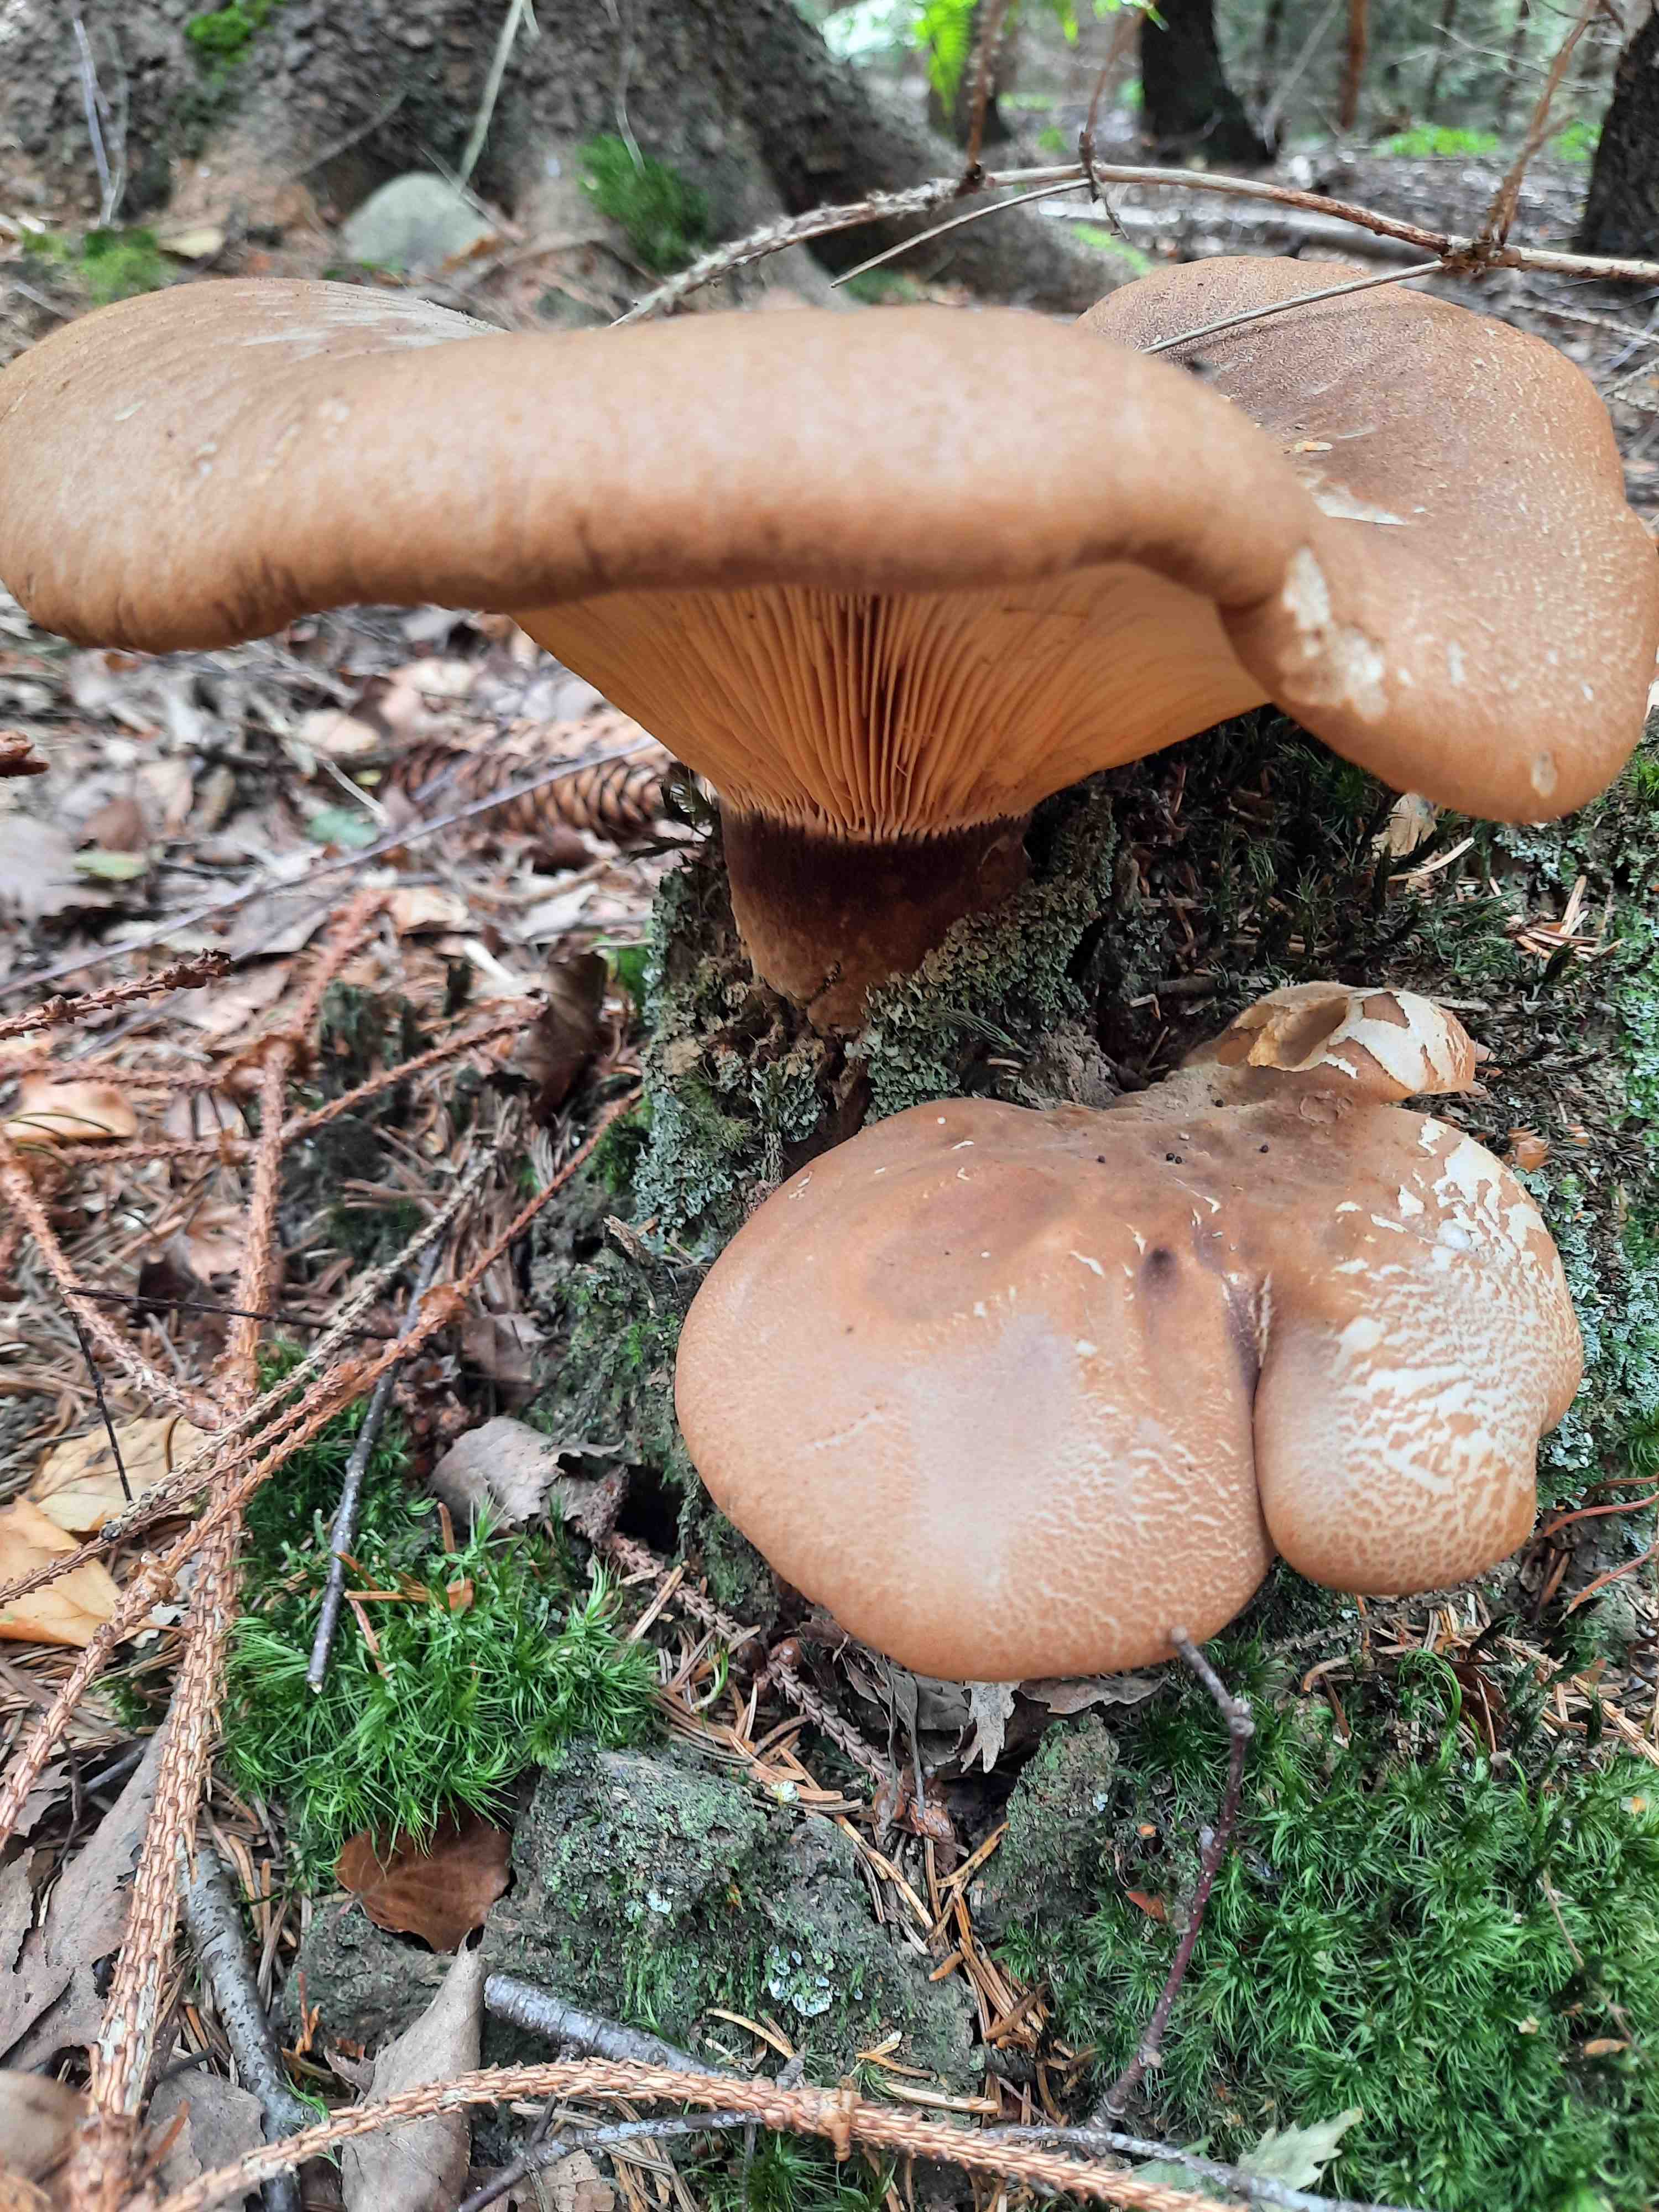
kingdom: Fungi
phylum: Basidiomycota
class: Agaricomycetes
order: Boletales
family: Tapinellaceae
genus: Tapinella
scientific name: Tapinella atrotomentosa
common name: sortfiltet viftesvamp
